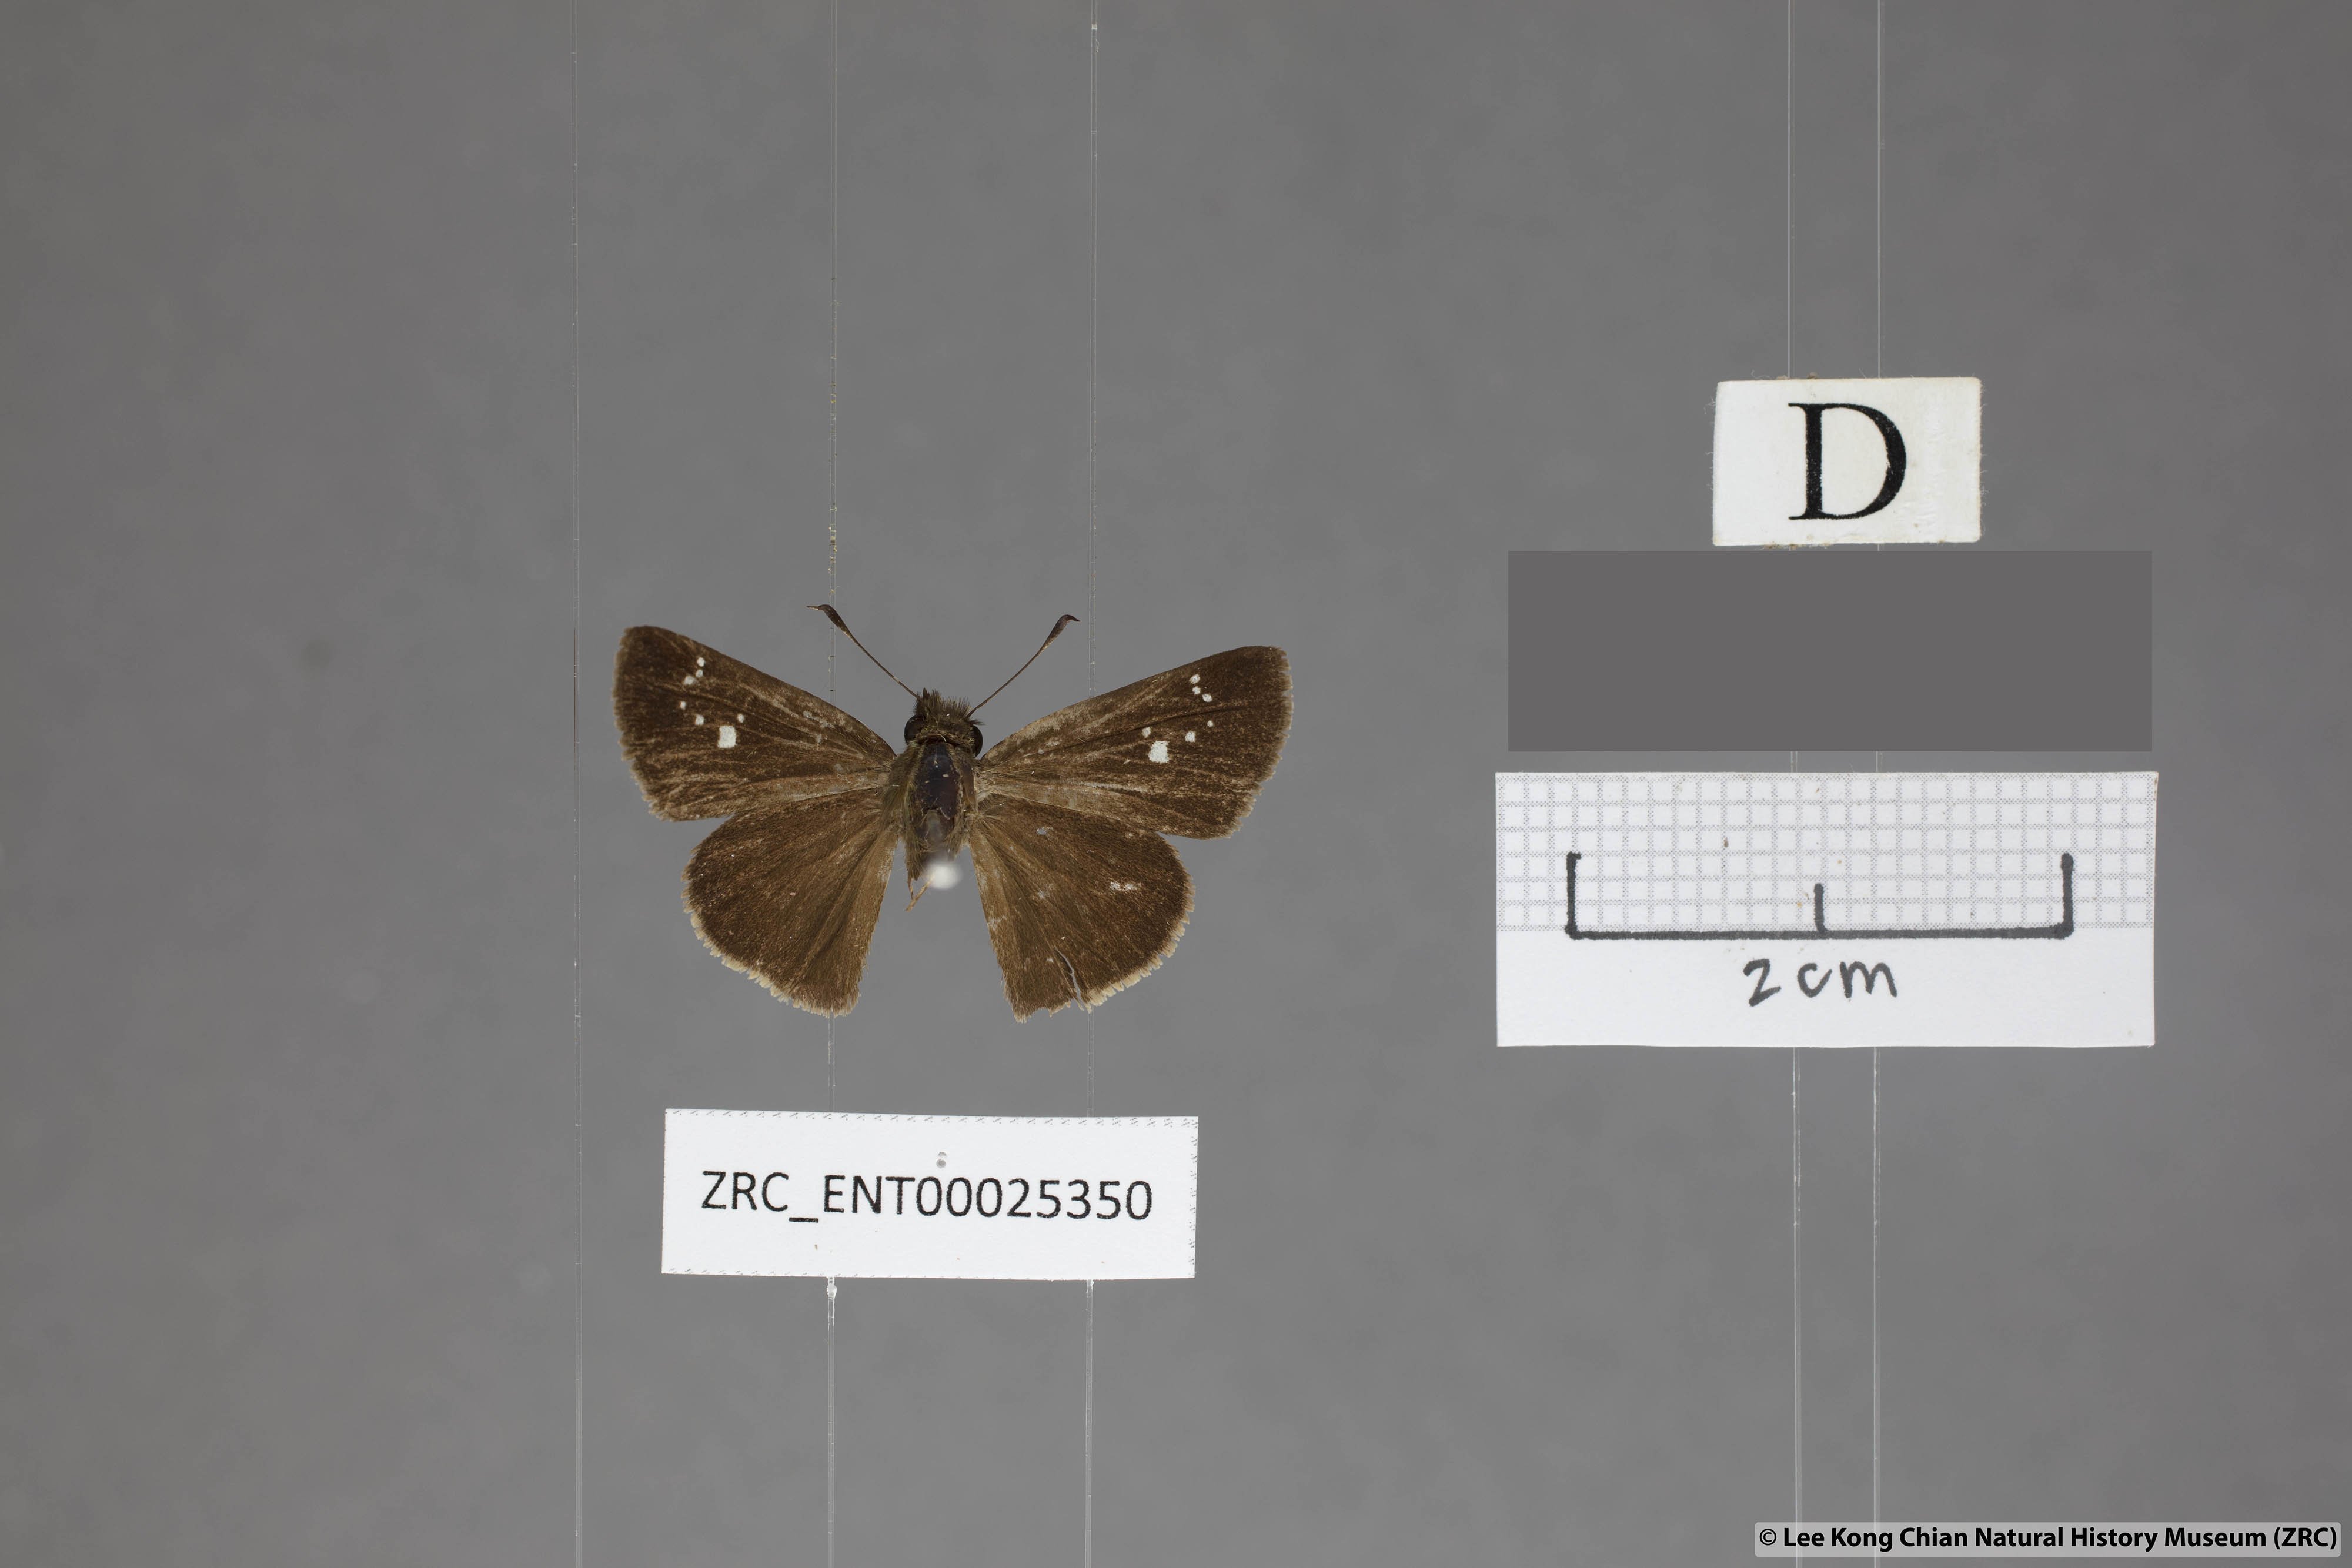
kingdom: Animalia
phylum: Arthropoda
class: Insecta
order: Lepidoptera
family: Hesperiidae
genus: Polytremis
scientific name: Polytremis minuta
